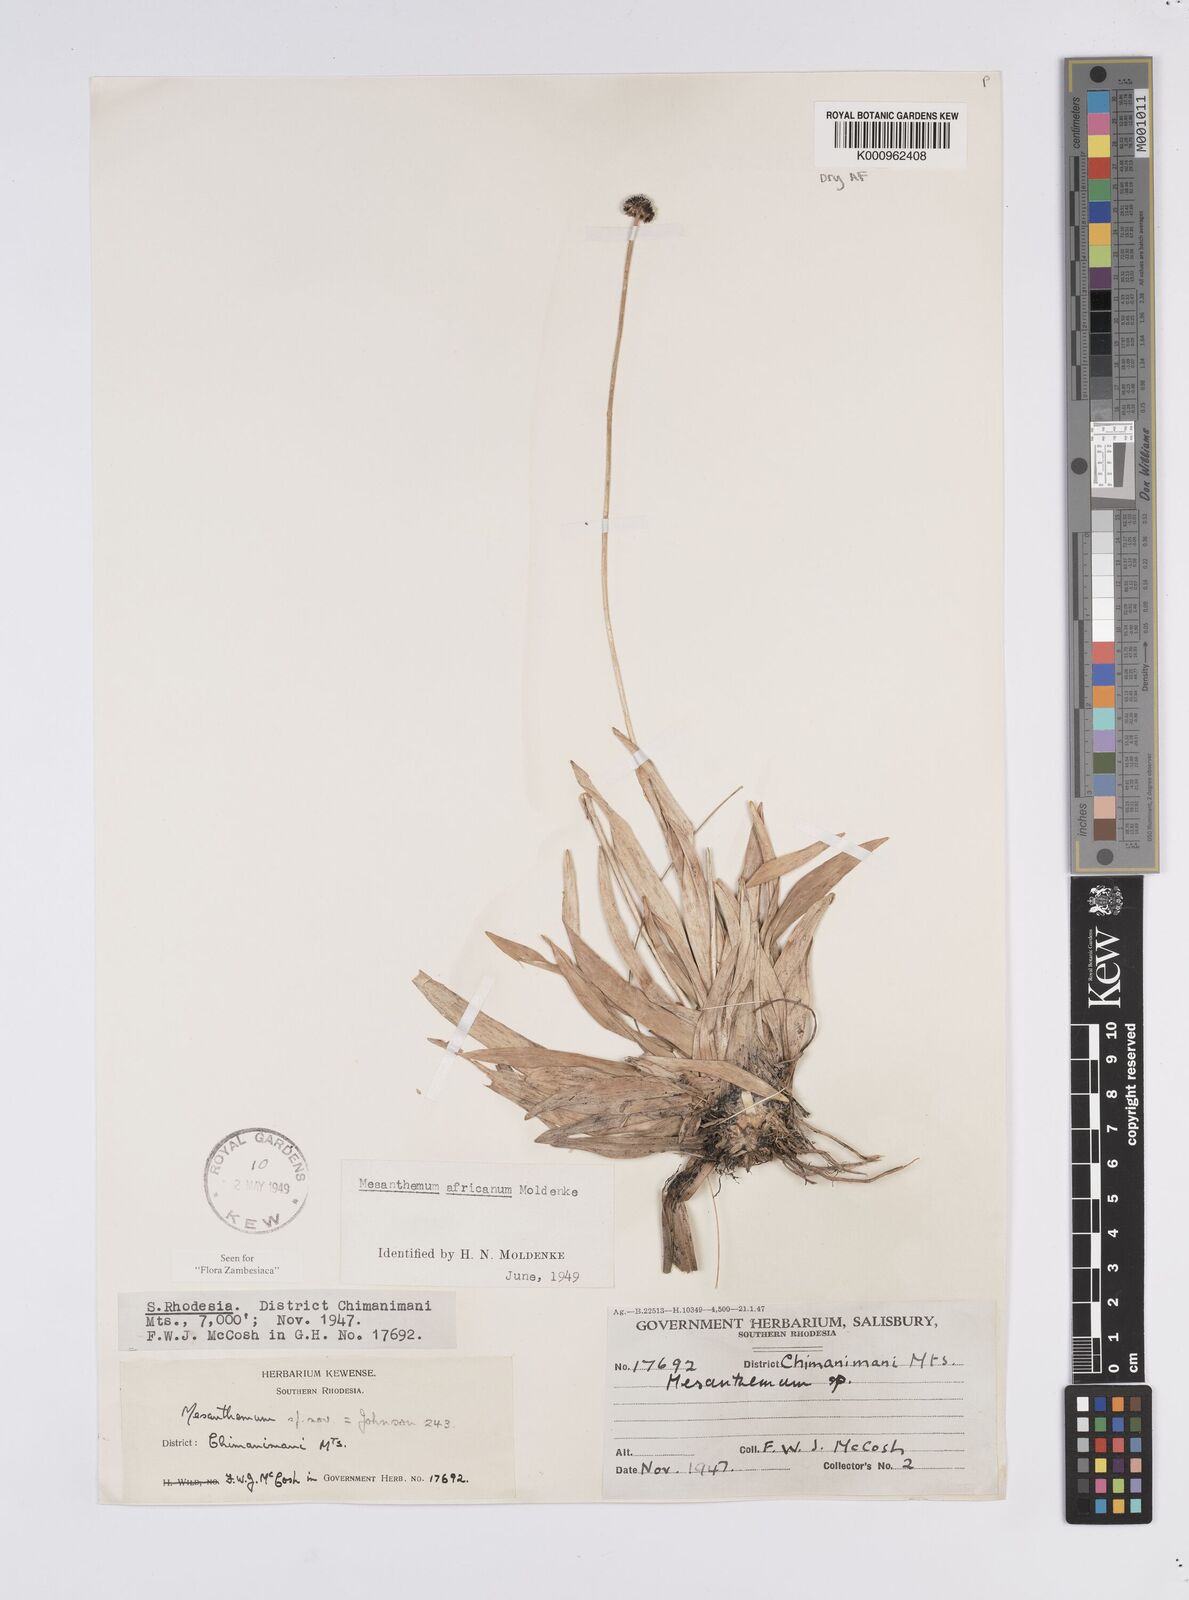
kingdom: Plantae
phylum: Tracheophyta
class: Liliopsida
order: Poales
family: Eriocaulaceae
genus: Mesanthemum
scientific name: Mesanthemum africanum
